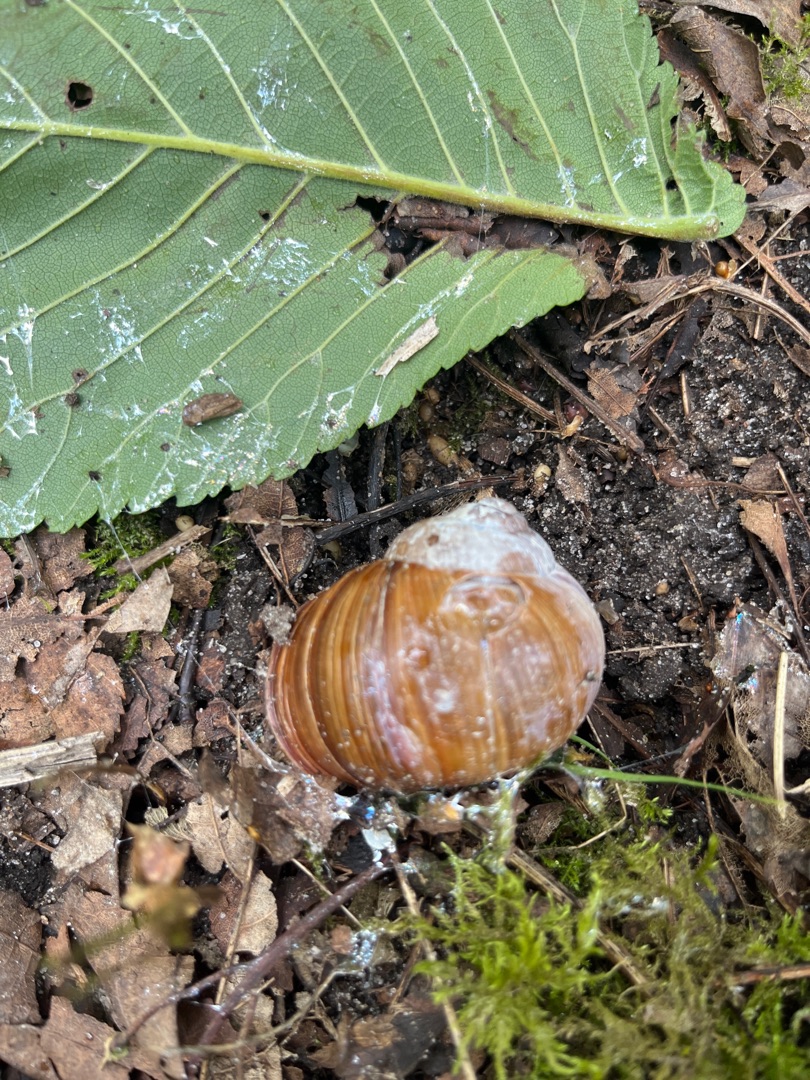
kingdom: Animalia
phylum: Mollusca
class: Gastropoda
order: Stylommatophora
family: Helicidae
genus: Helix
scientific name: Helix pomatia
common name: Vinbjergsnegl
